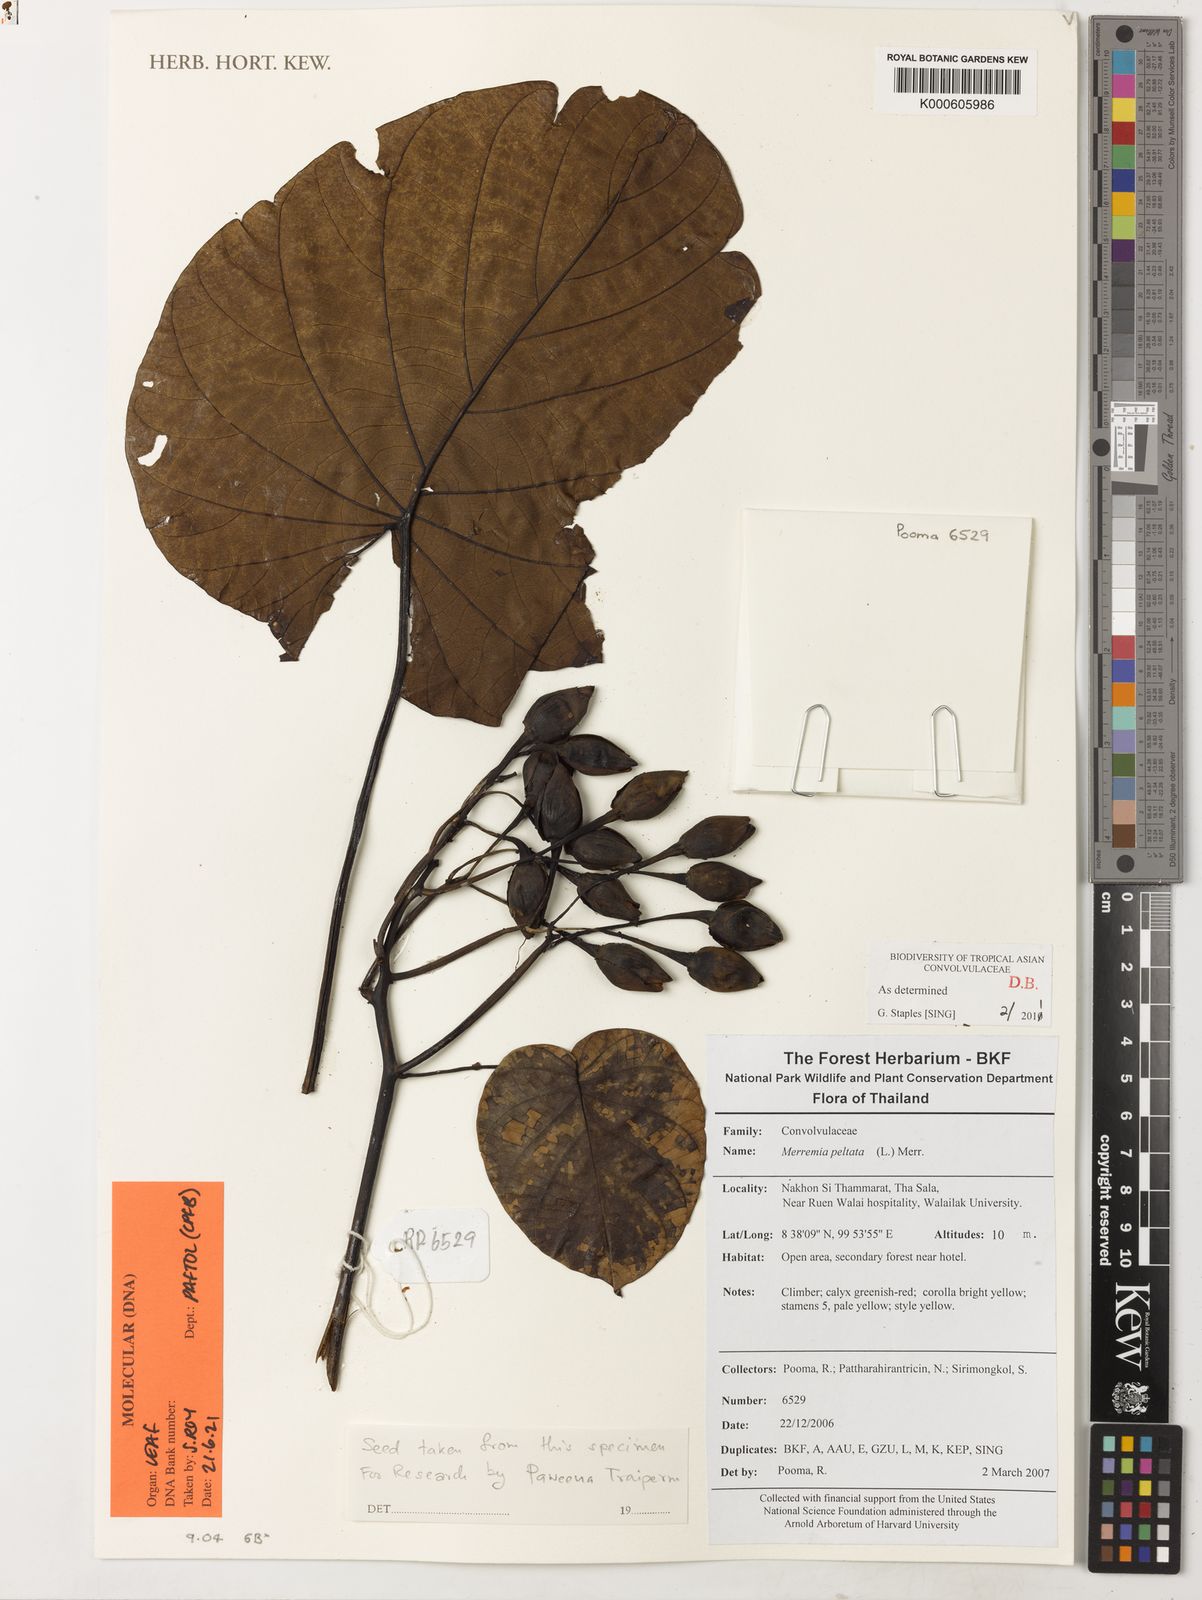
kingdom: Plantae
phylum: Tracheophyta
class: Magnoliopsida
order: Solanales
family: Convolvulaceae
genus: Decalobanthus
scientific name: Decalobanthus peltatus
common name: Merremia
